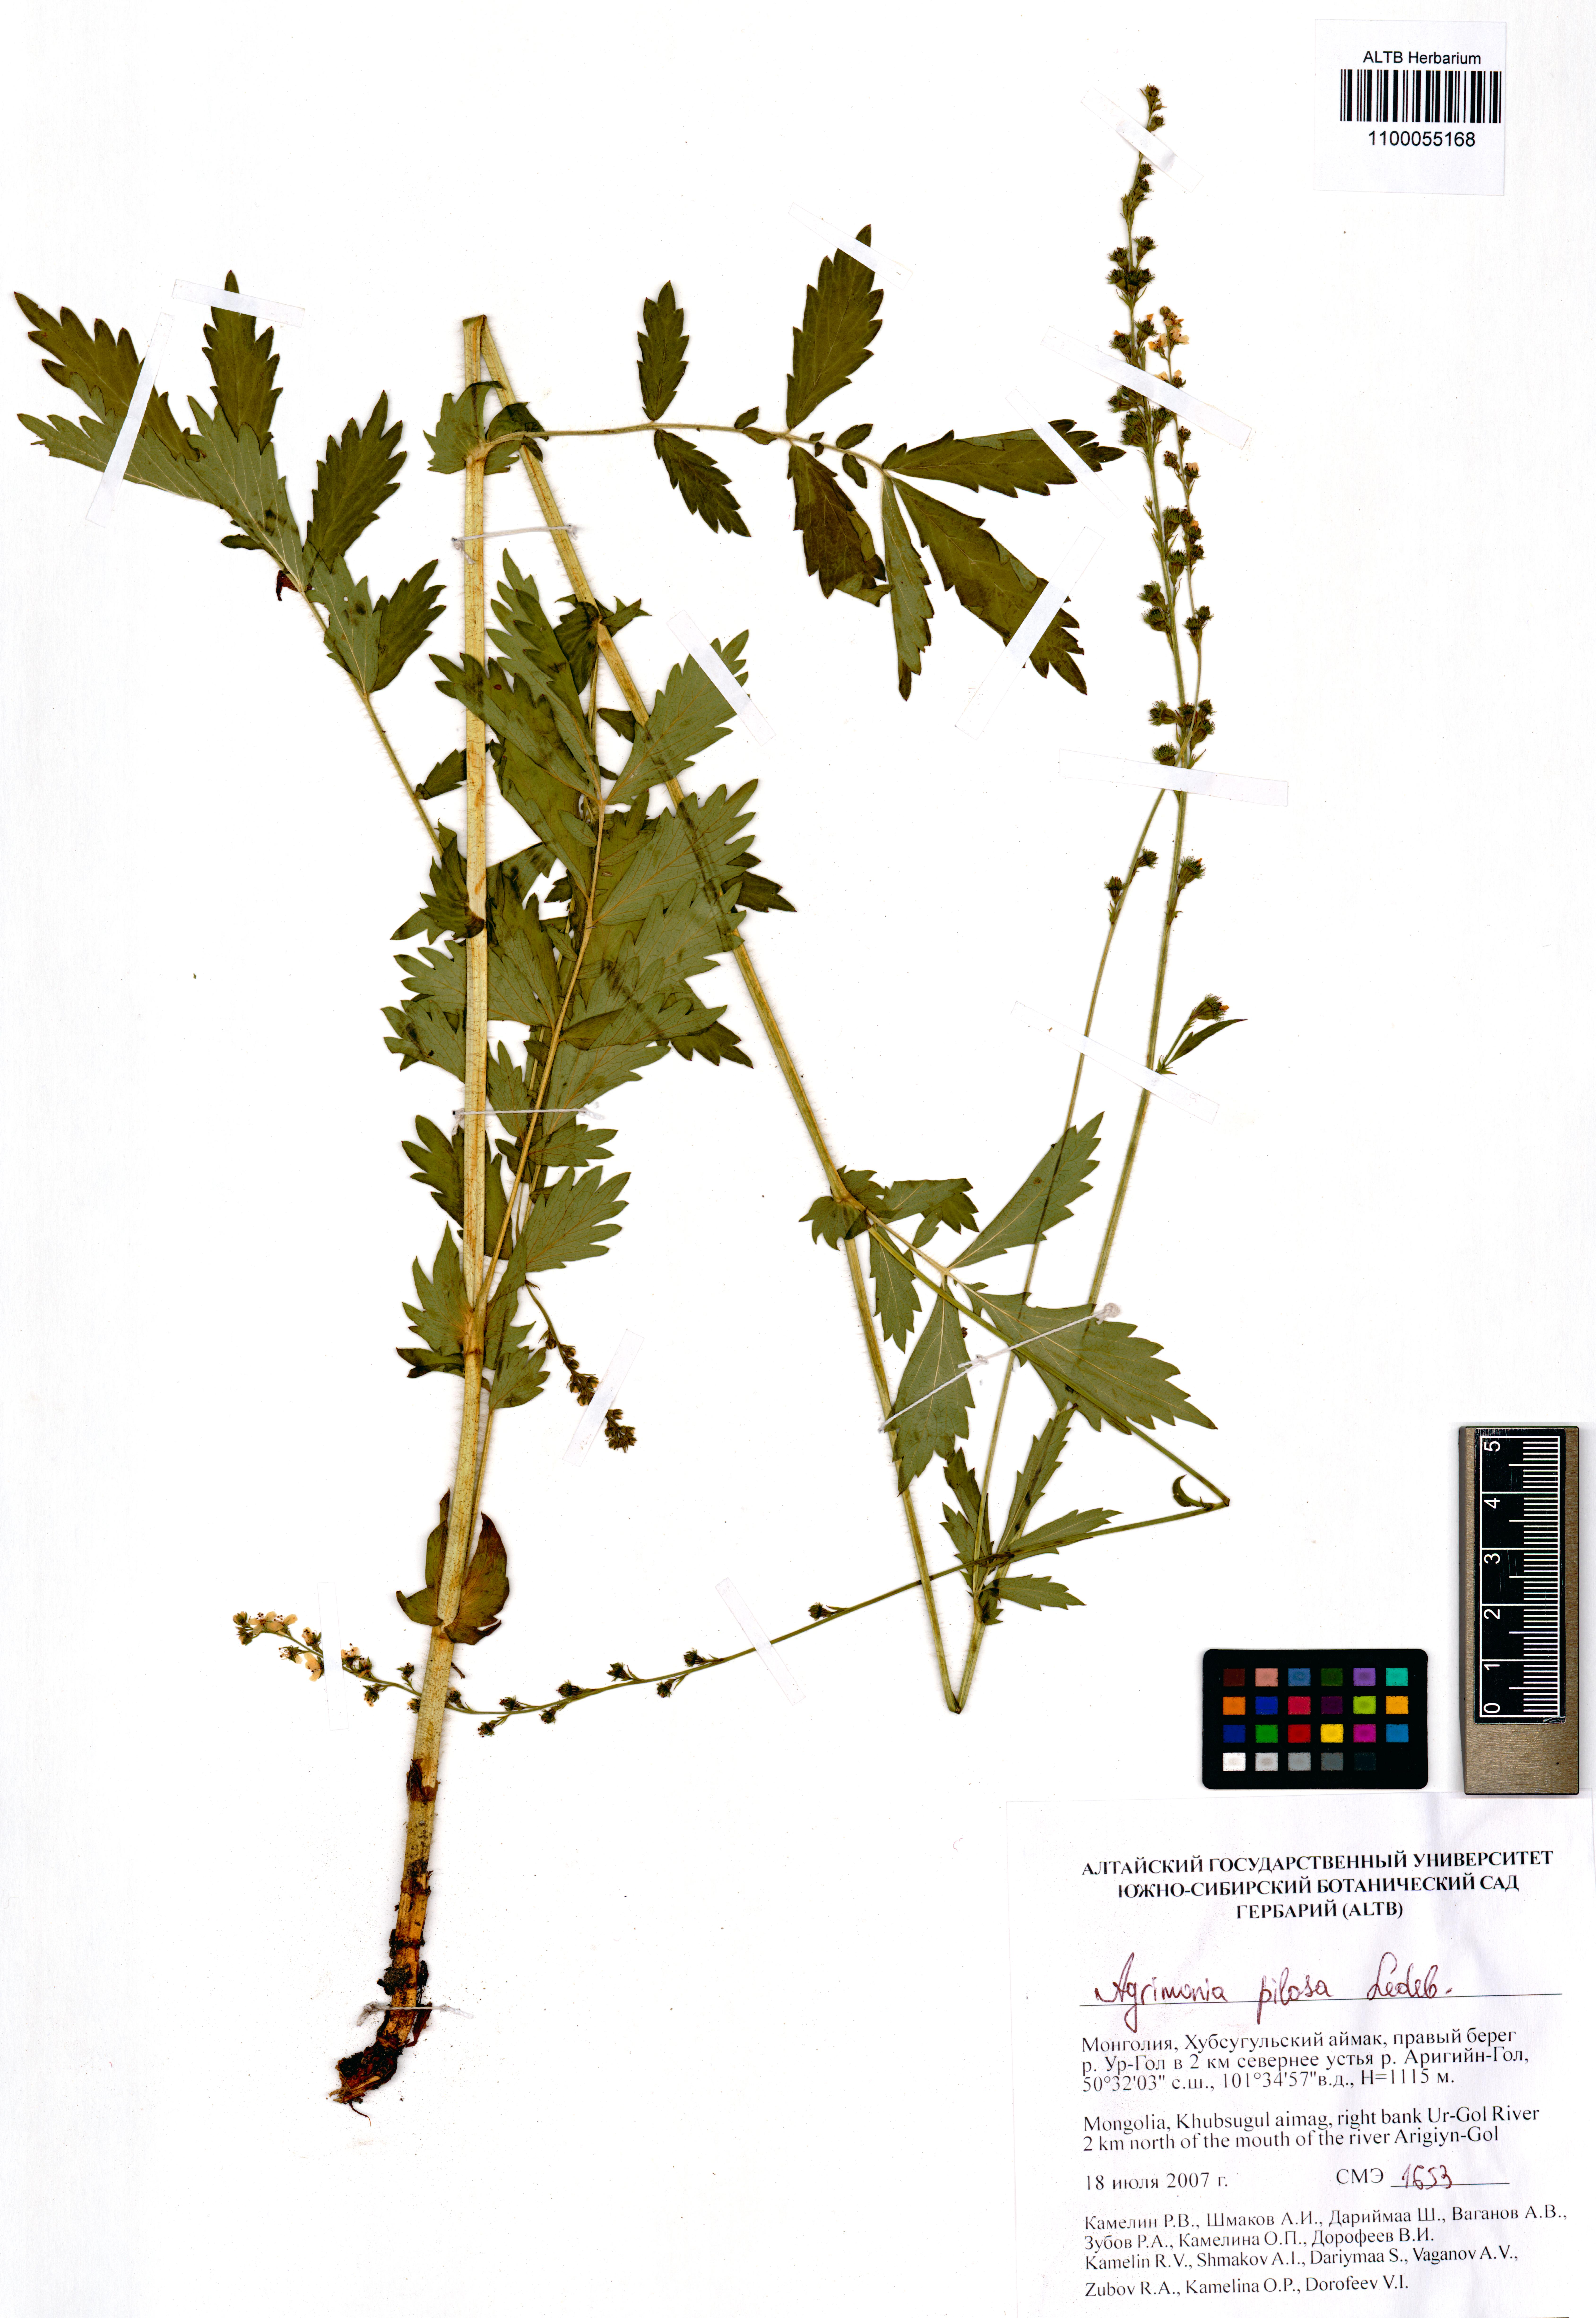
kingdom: Plantae
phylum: Tracheophyta
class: Magnoliopsida
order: Rosales
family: Rosaceae
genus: Agrimonia
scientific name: Agrimonia pilosa
